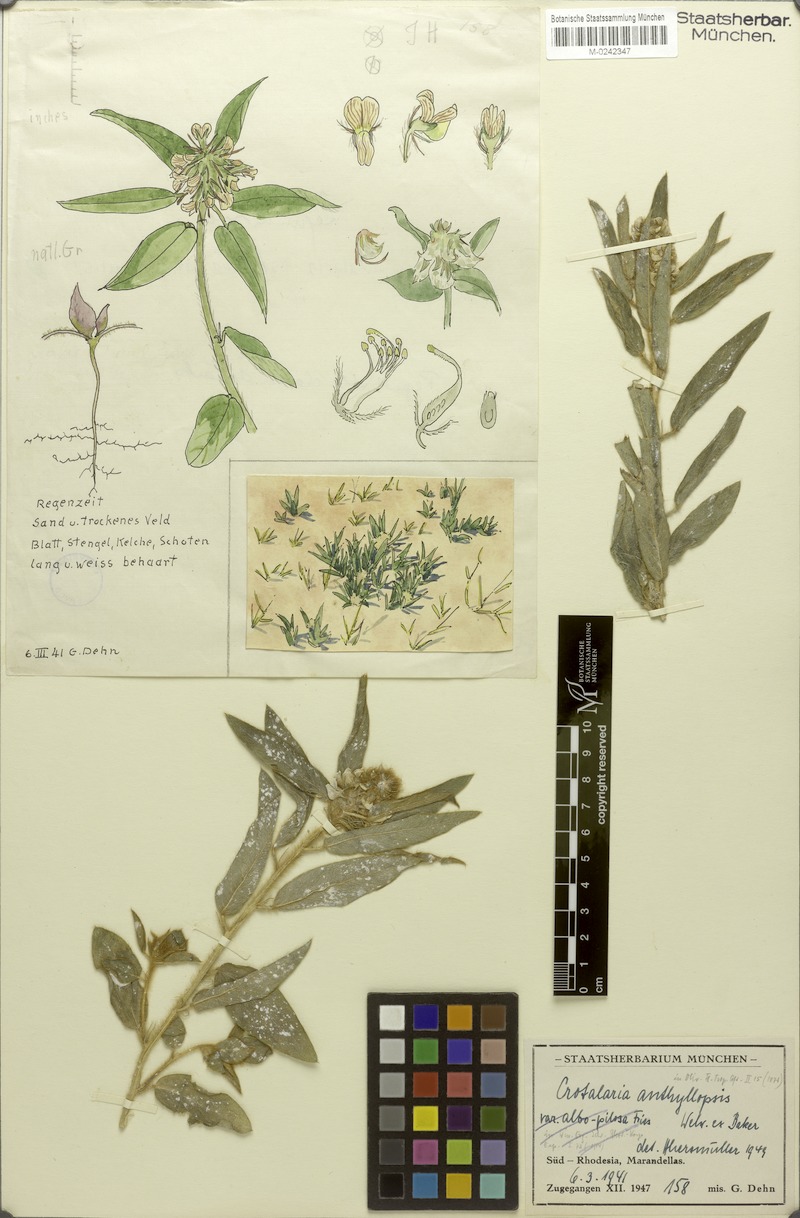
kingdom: Plantae
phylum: Tracheophyta
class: Magnoliopsida
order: Fabales
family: Fabaceae
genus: Crotalaria
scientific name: Crotalaria anthyllopsis
